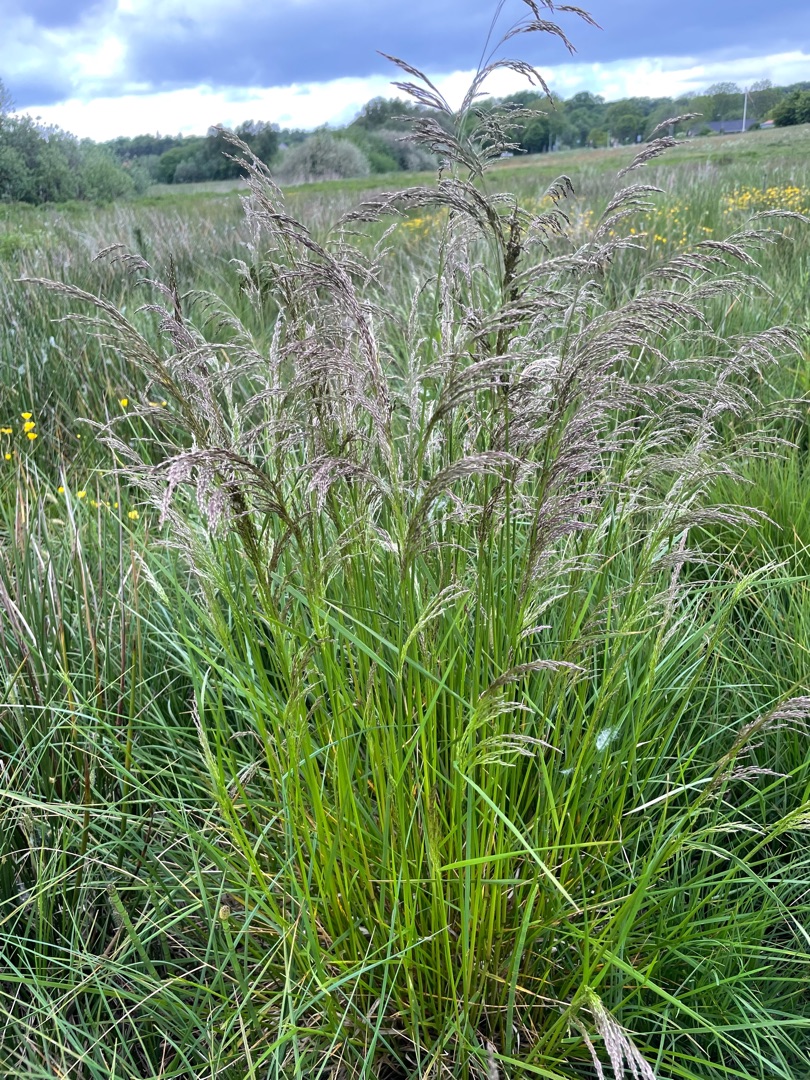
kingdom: Plantae
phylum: Tracheophyta
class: Liliopsida
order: Poales
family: Poaceae
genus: Deschampsia
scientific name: Deschampsia cespitosa
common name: Mose-bunke
